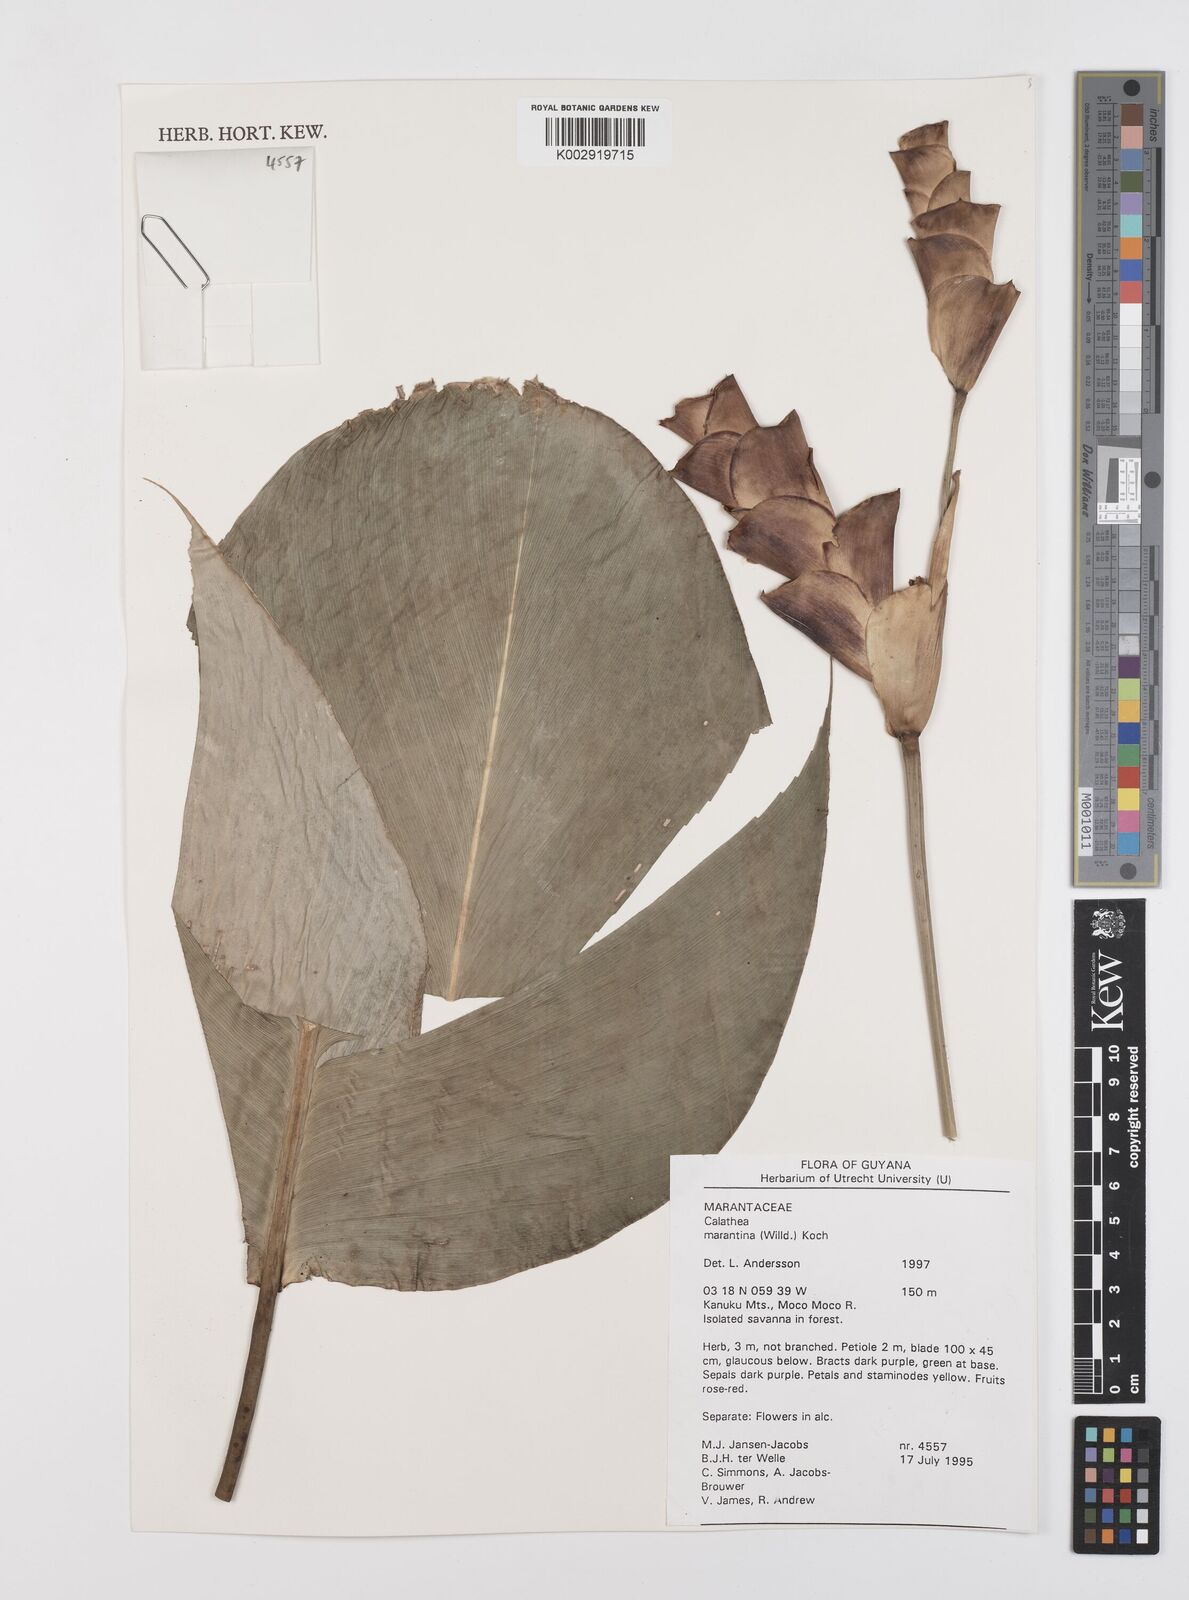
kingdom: Plantae
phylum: Tracheophyta
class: Liliopsida
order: Zingiberales
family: Marantaceae
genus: Calathea
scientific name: Calathea casupito
